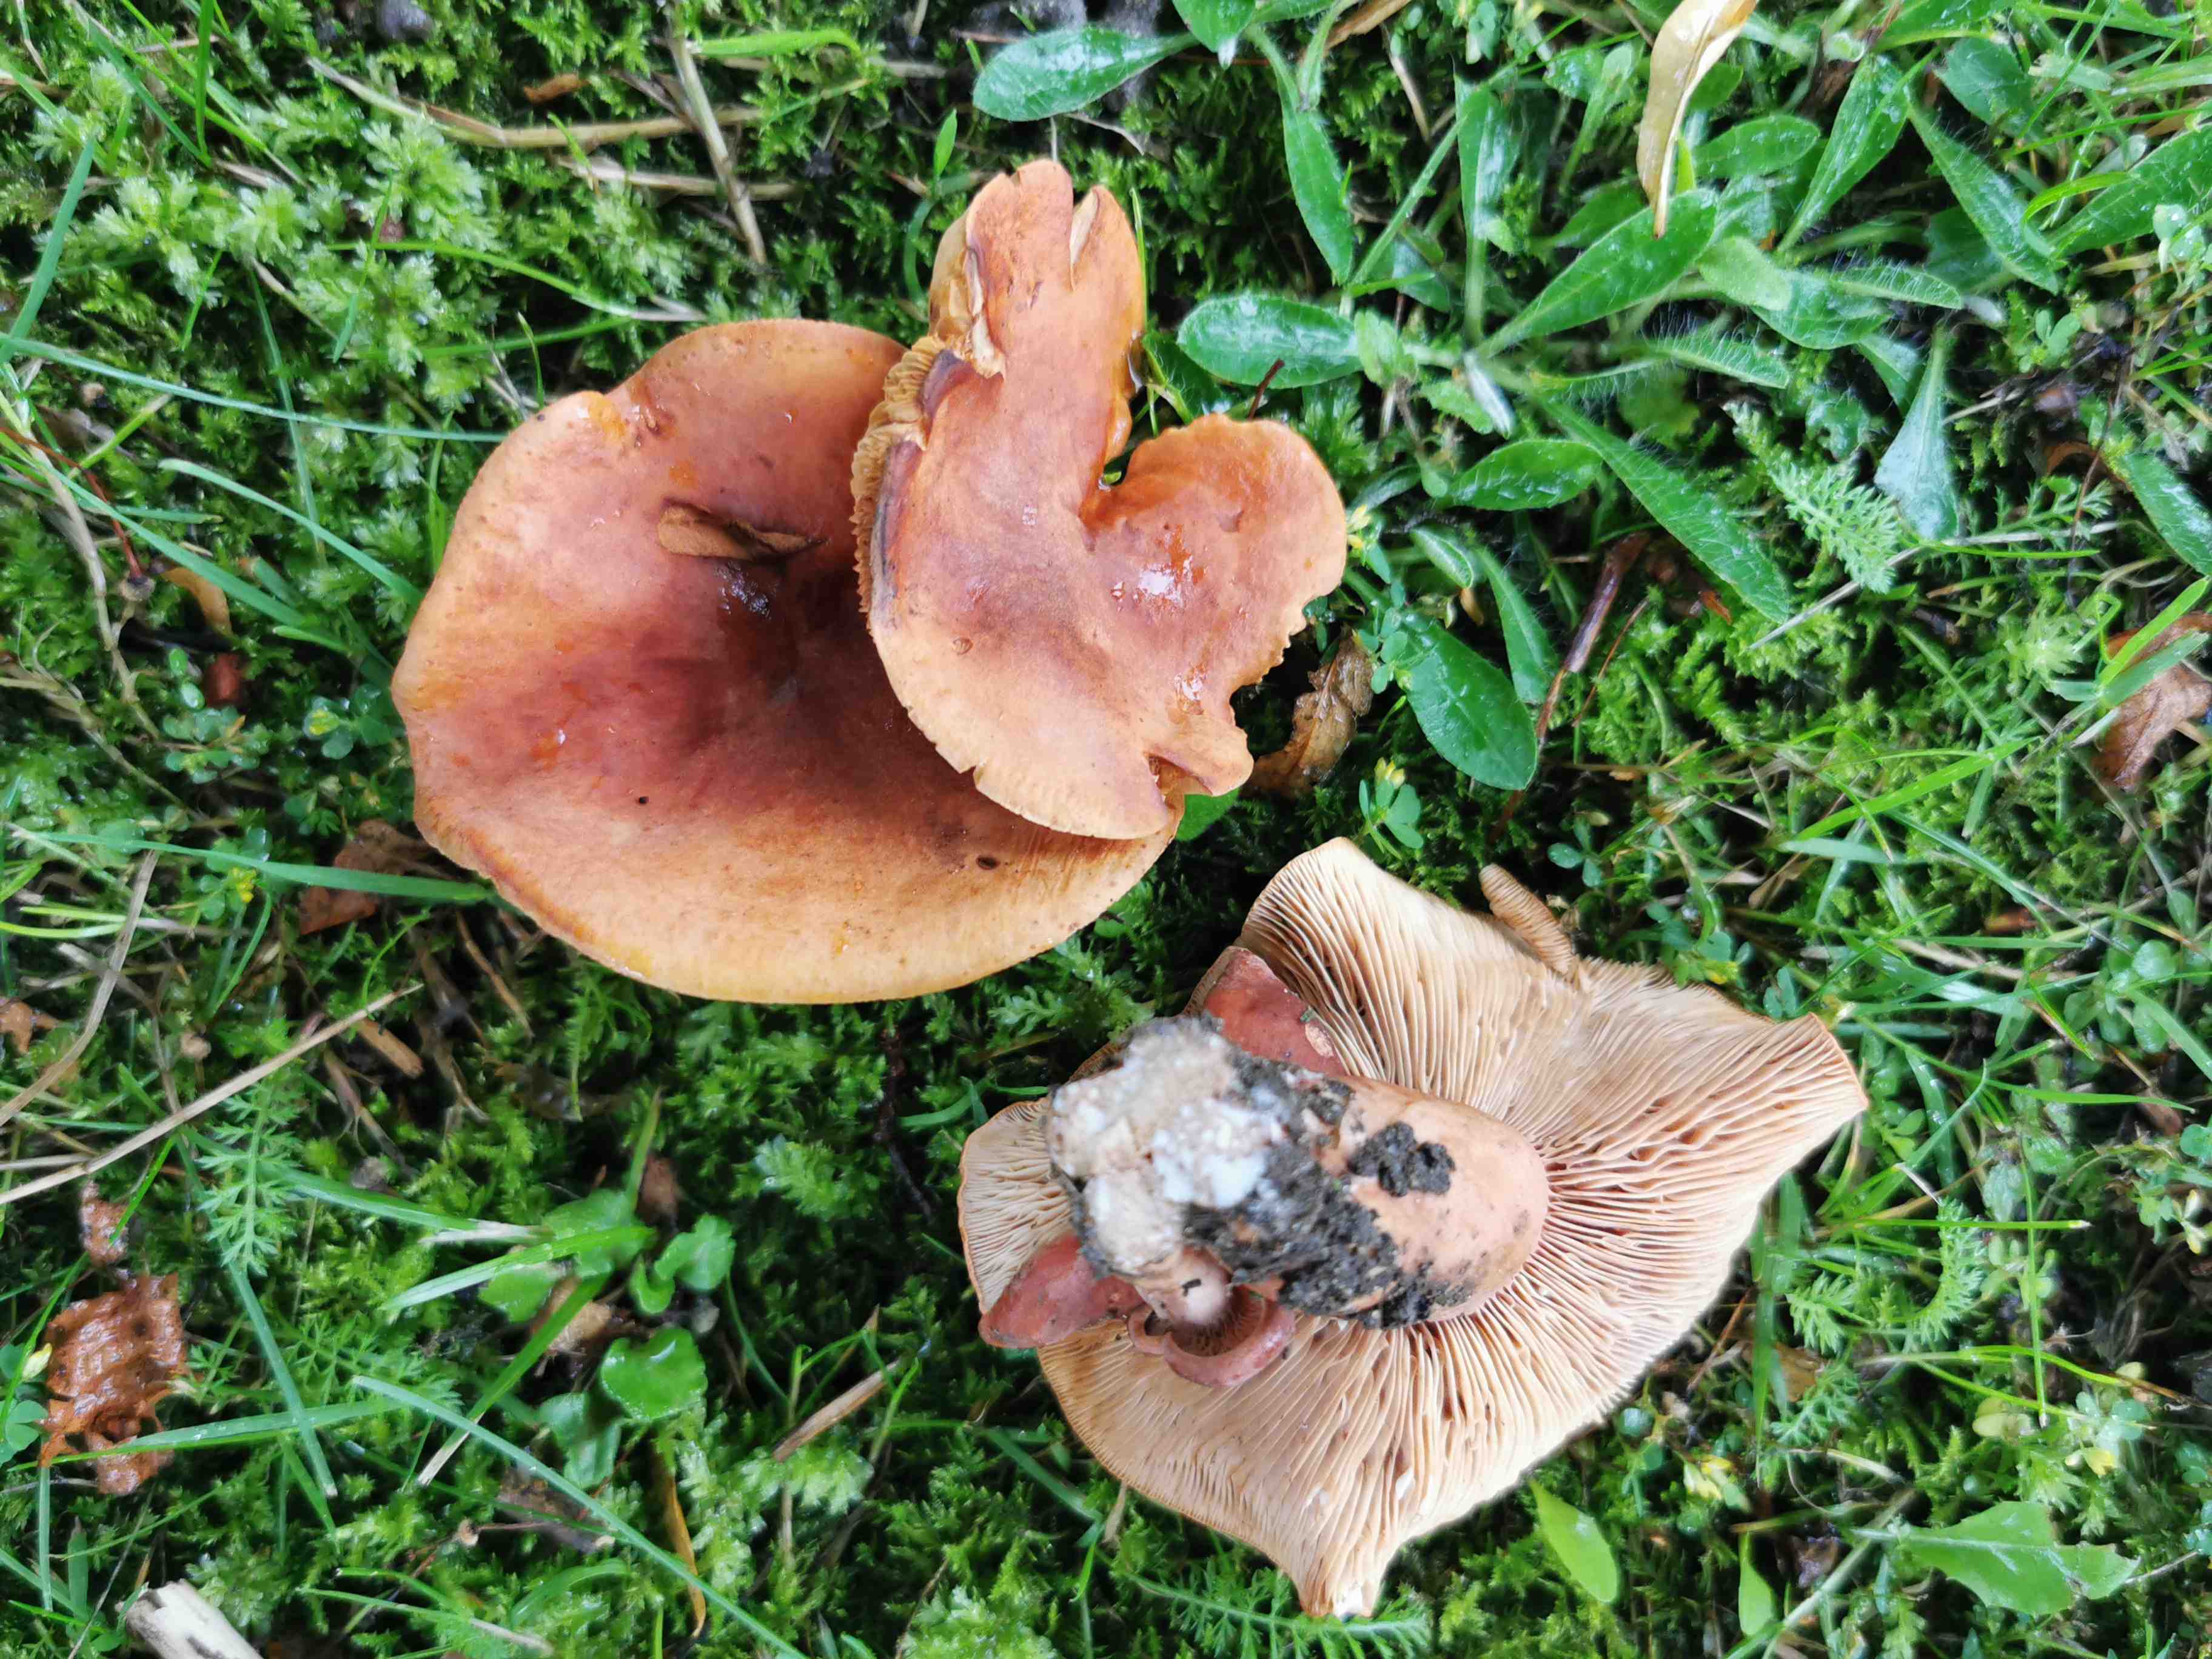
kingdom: Fungi
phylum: Basidiomycota
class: Agaricomycetes
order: Russulales
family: Russulaceae
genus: Lactarius
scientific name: Lactarius fulvissimus
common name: ræve-mælkehat
